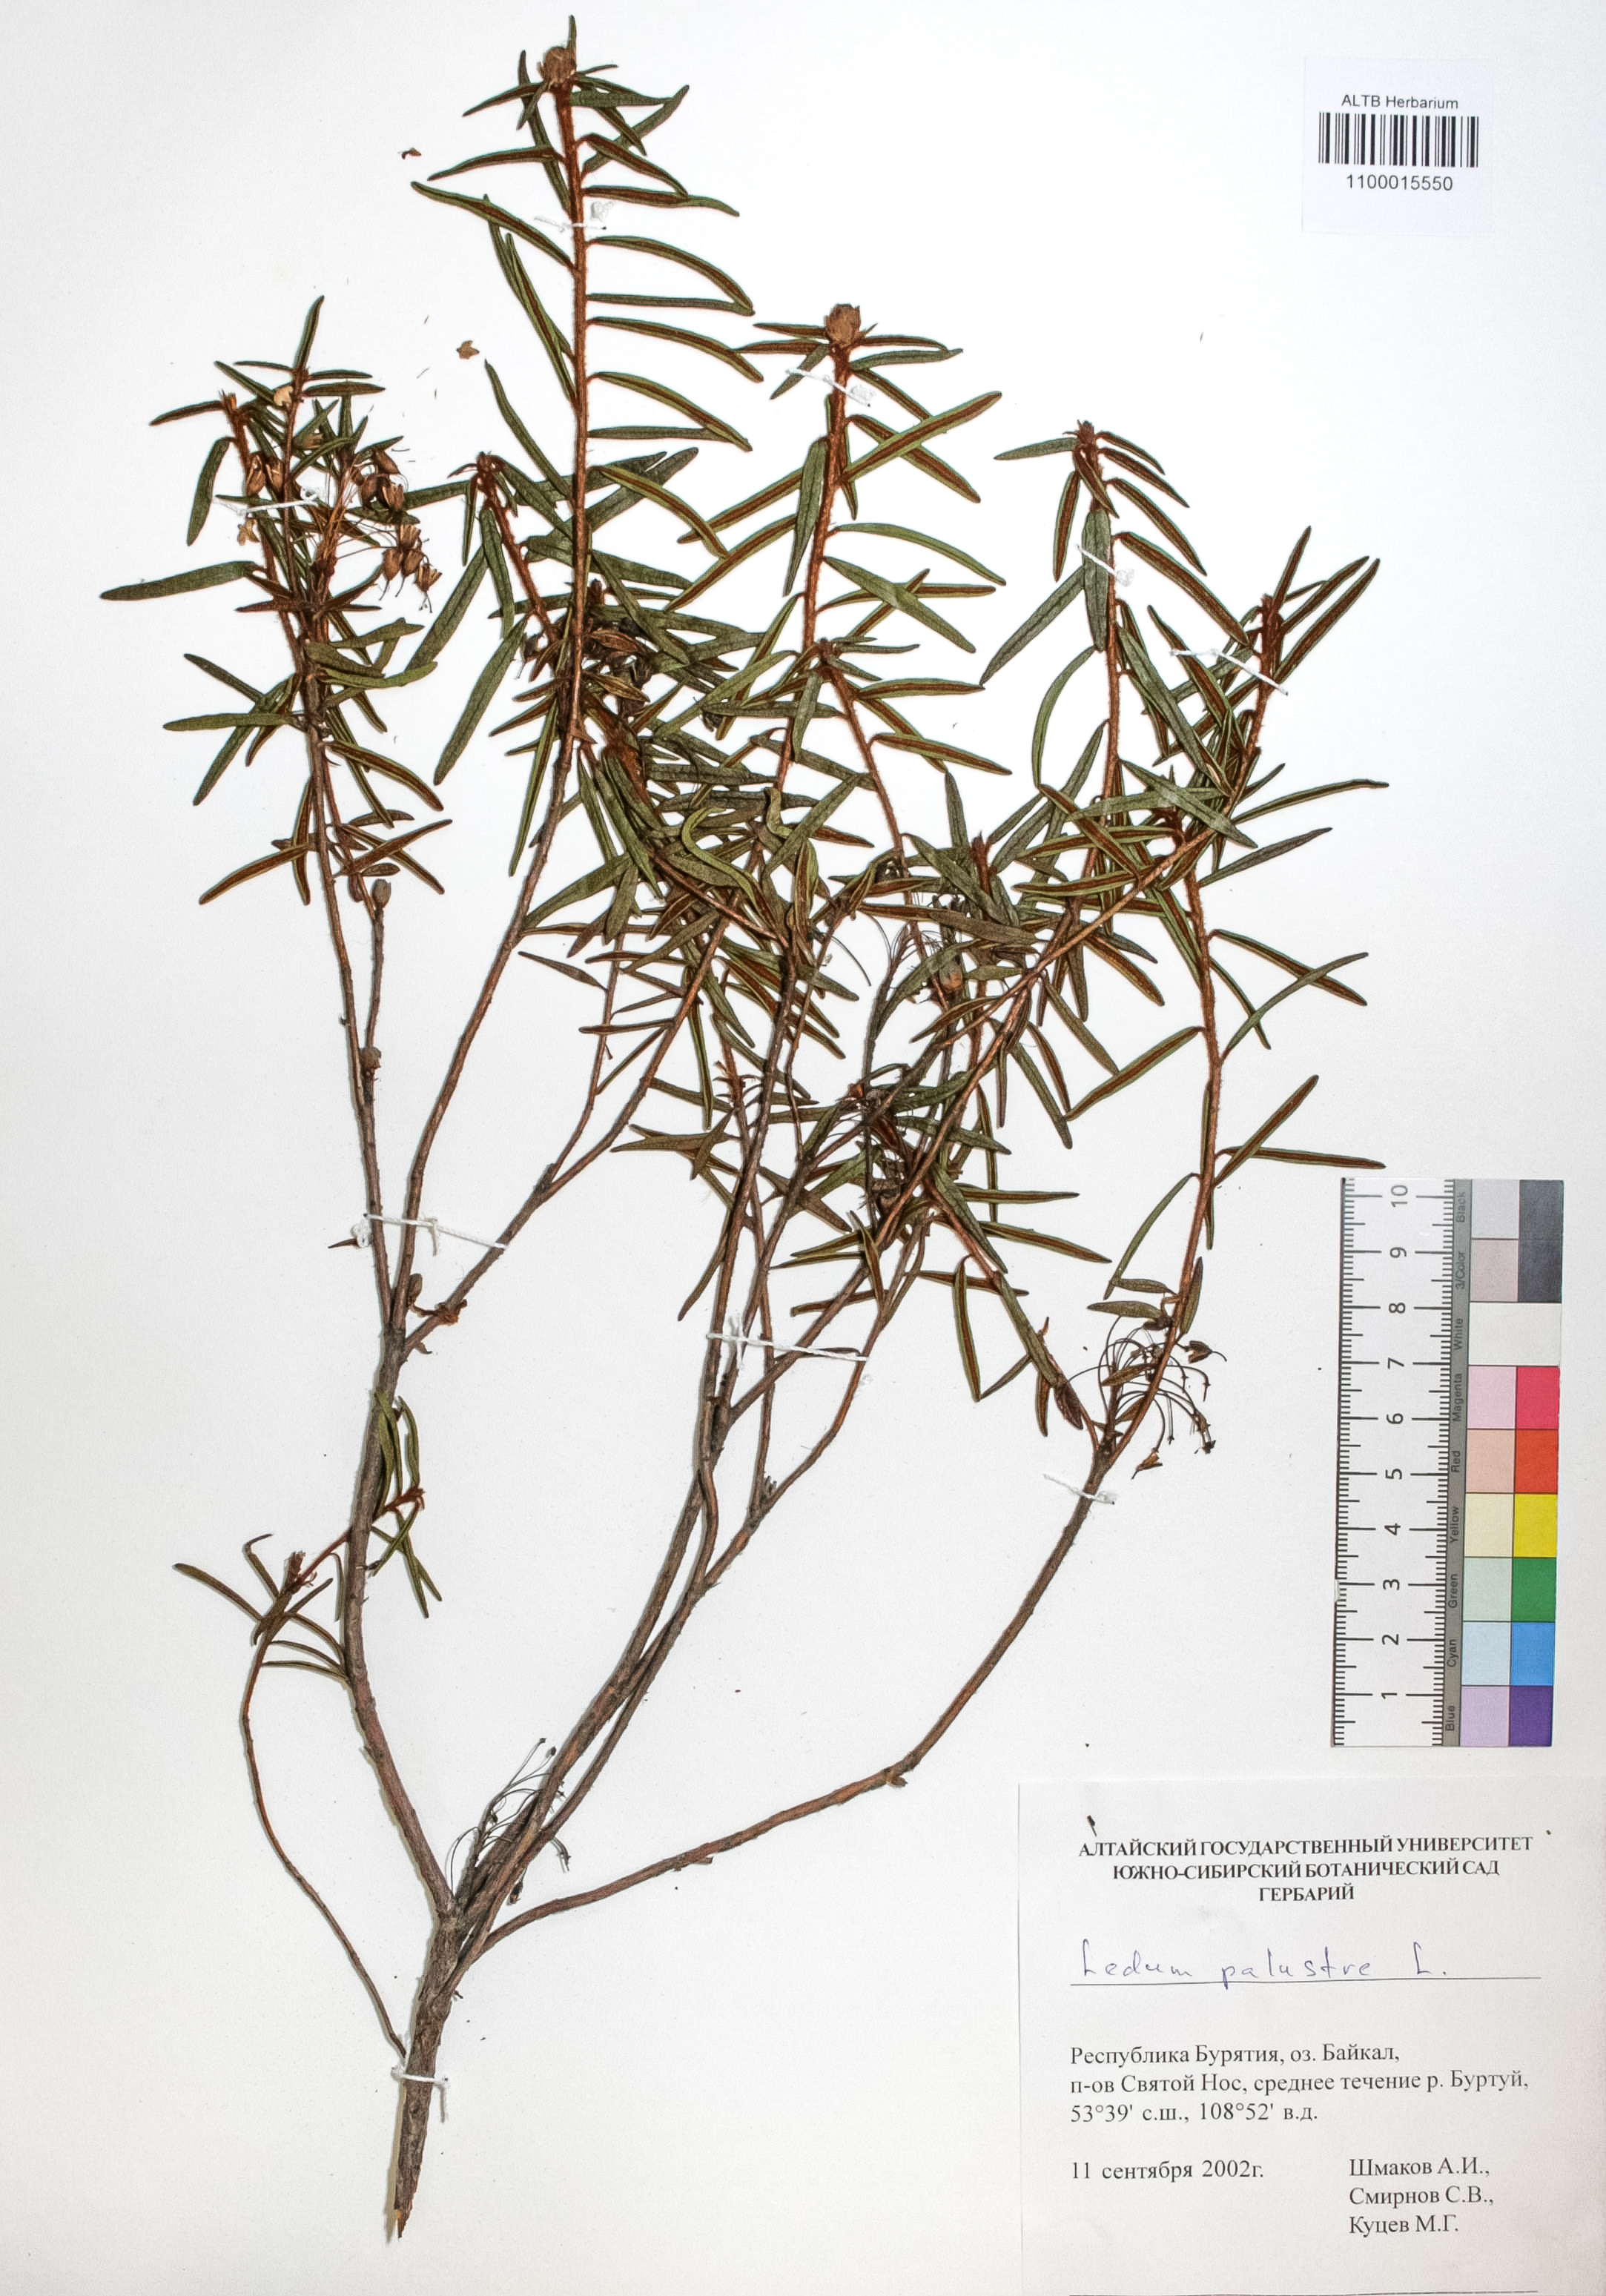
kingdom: Plantae
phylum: Tracheophyta
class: Magnoliopsida
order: Ericales
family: Ericaceae
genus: Rhododendron
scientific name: Rhododendron tomentosum
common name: Marsh labrador tea
